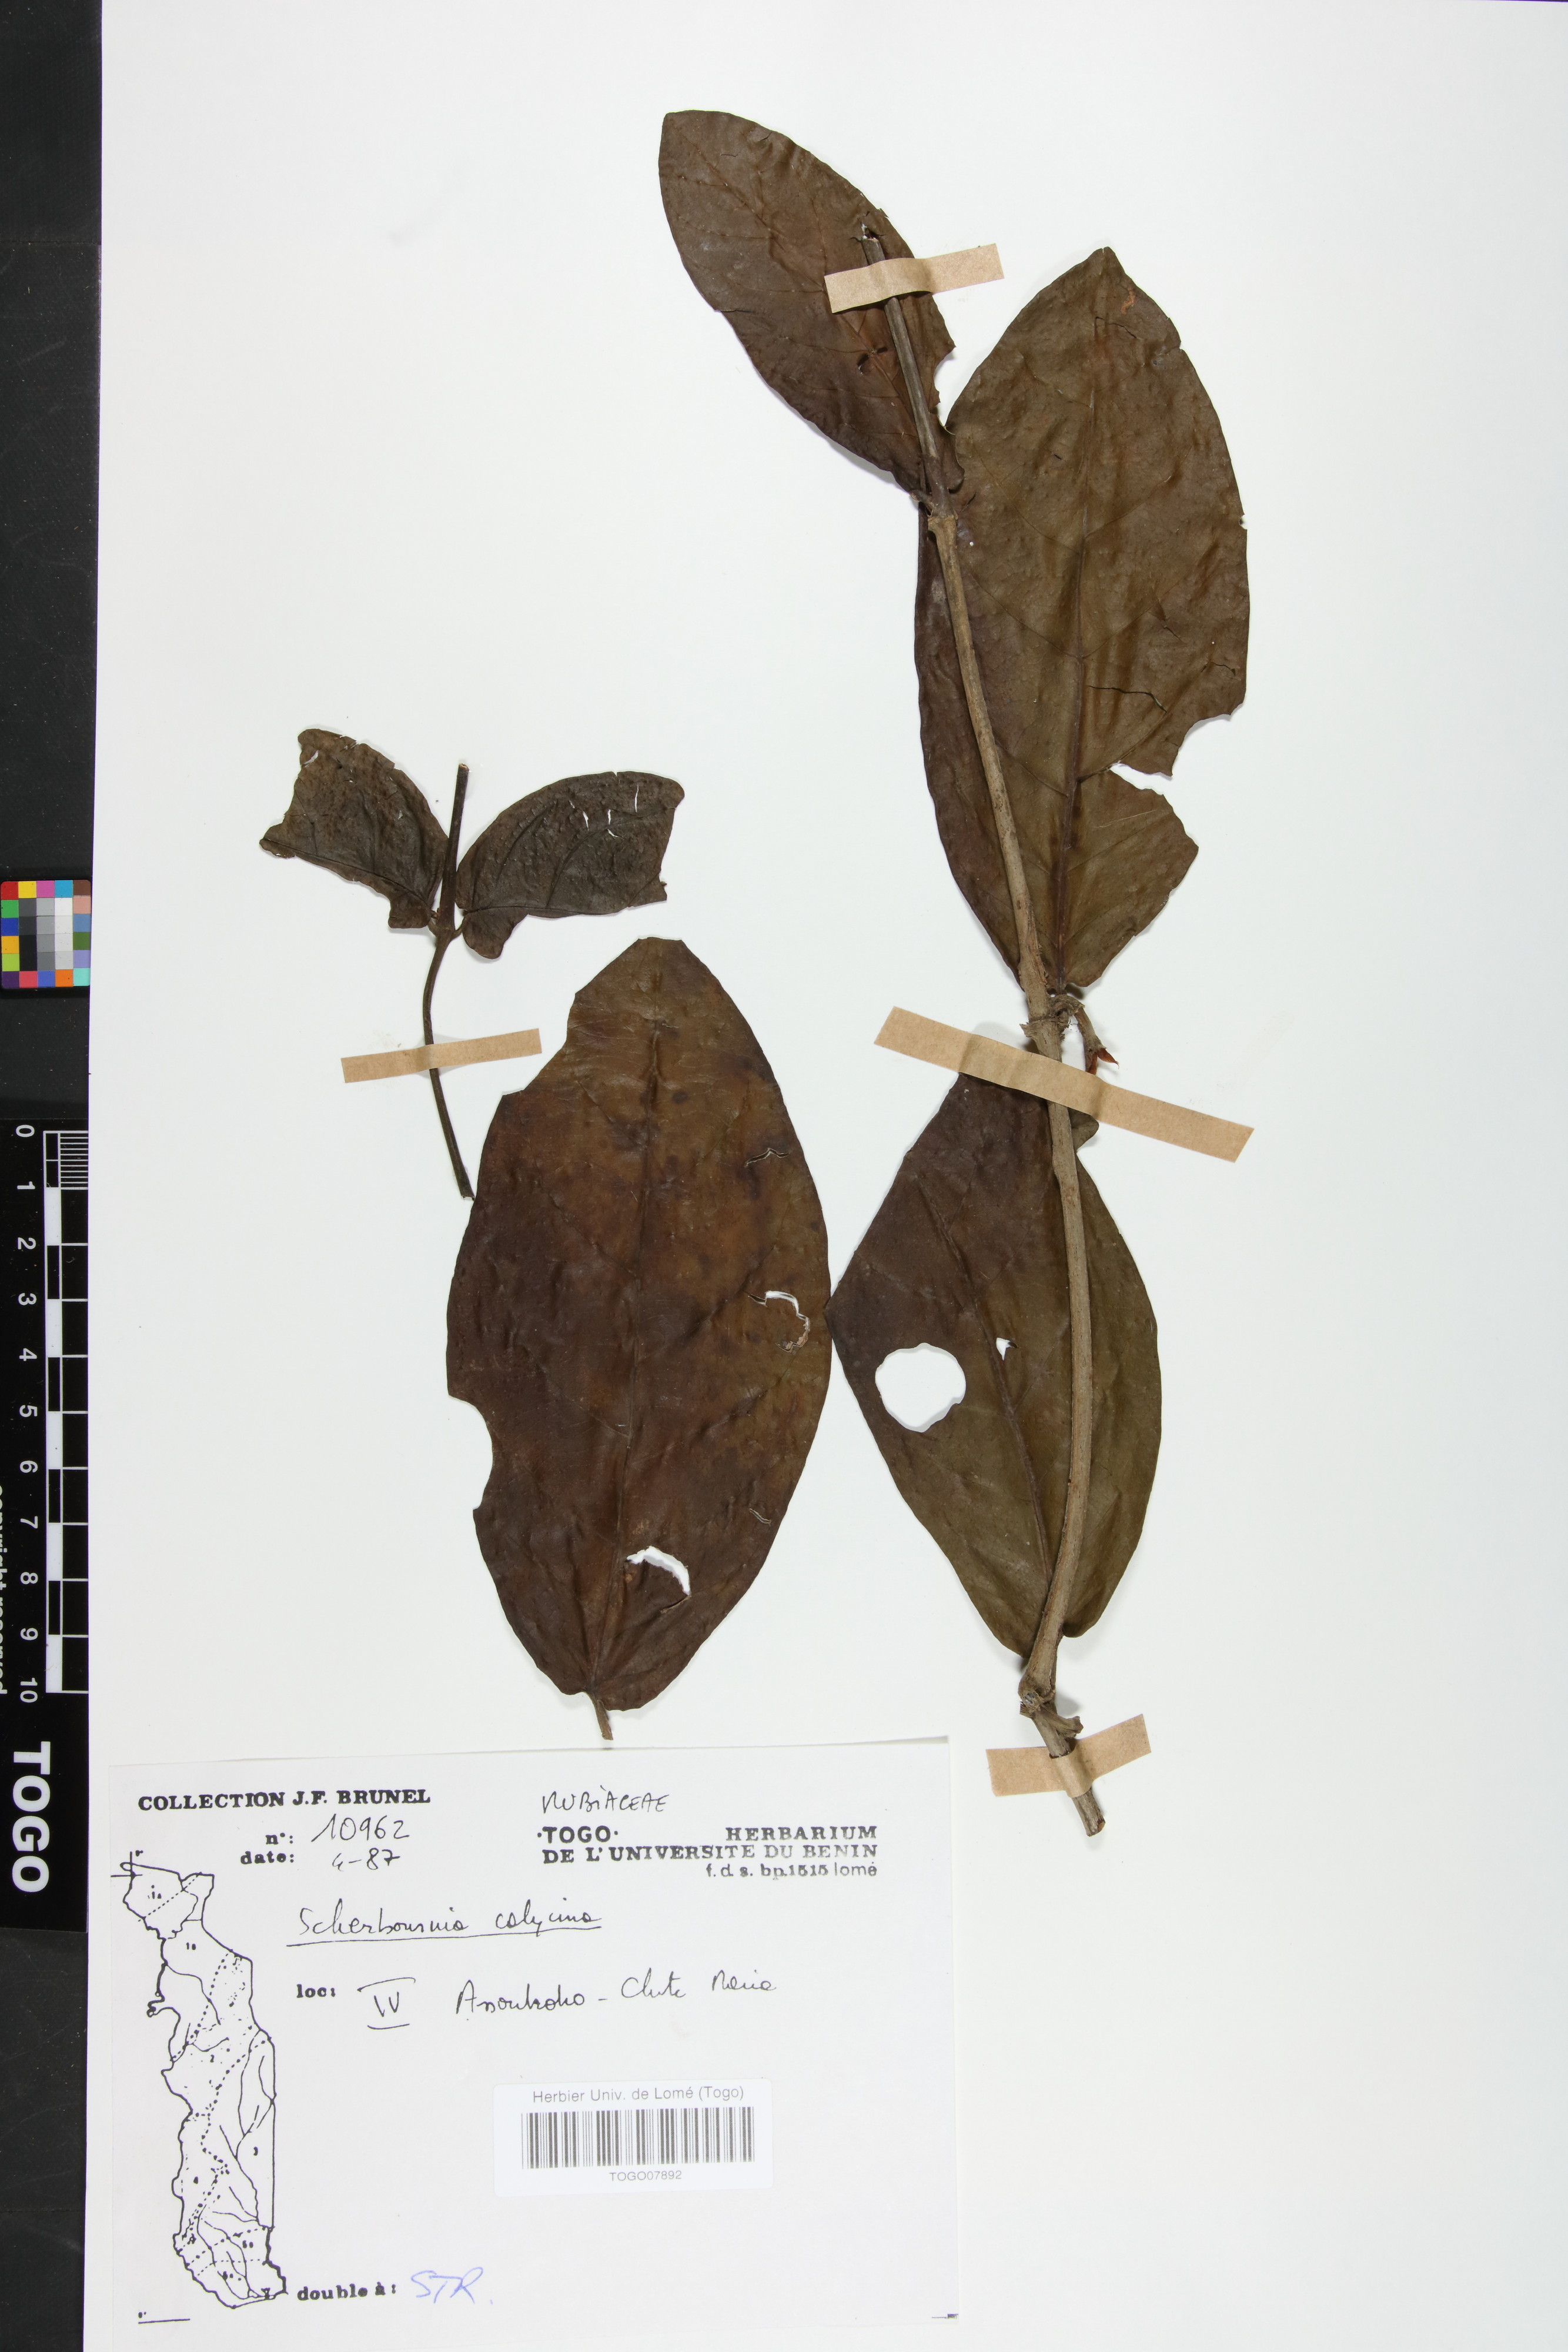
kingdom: Plantae
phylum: Tracheophyta
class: Magnoliopsida
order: Gentianales
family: Rubiaceae
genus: Sherbournia
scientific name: Sherbournia calycina
